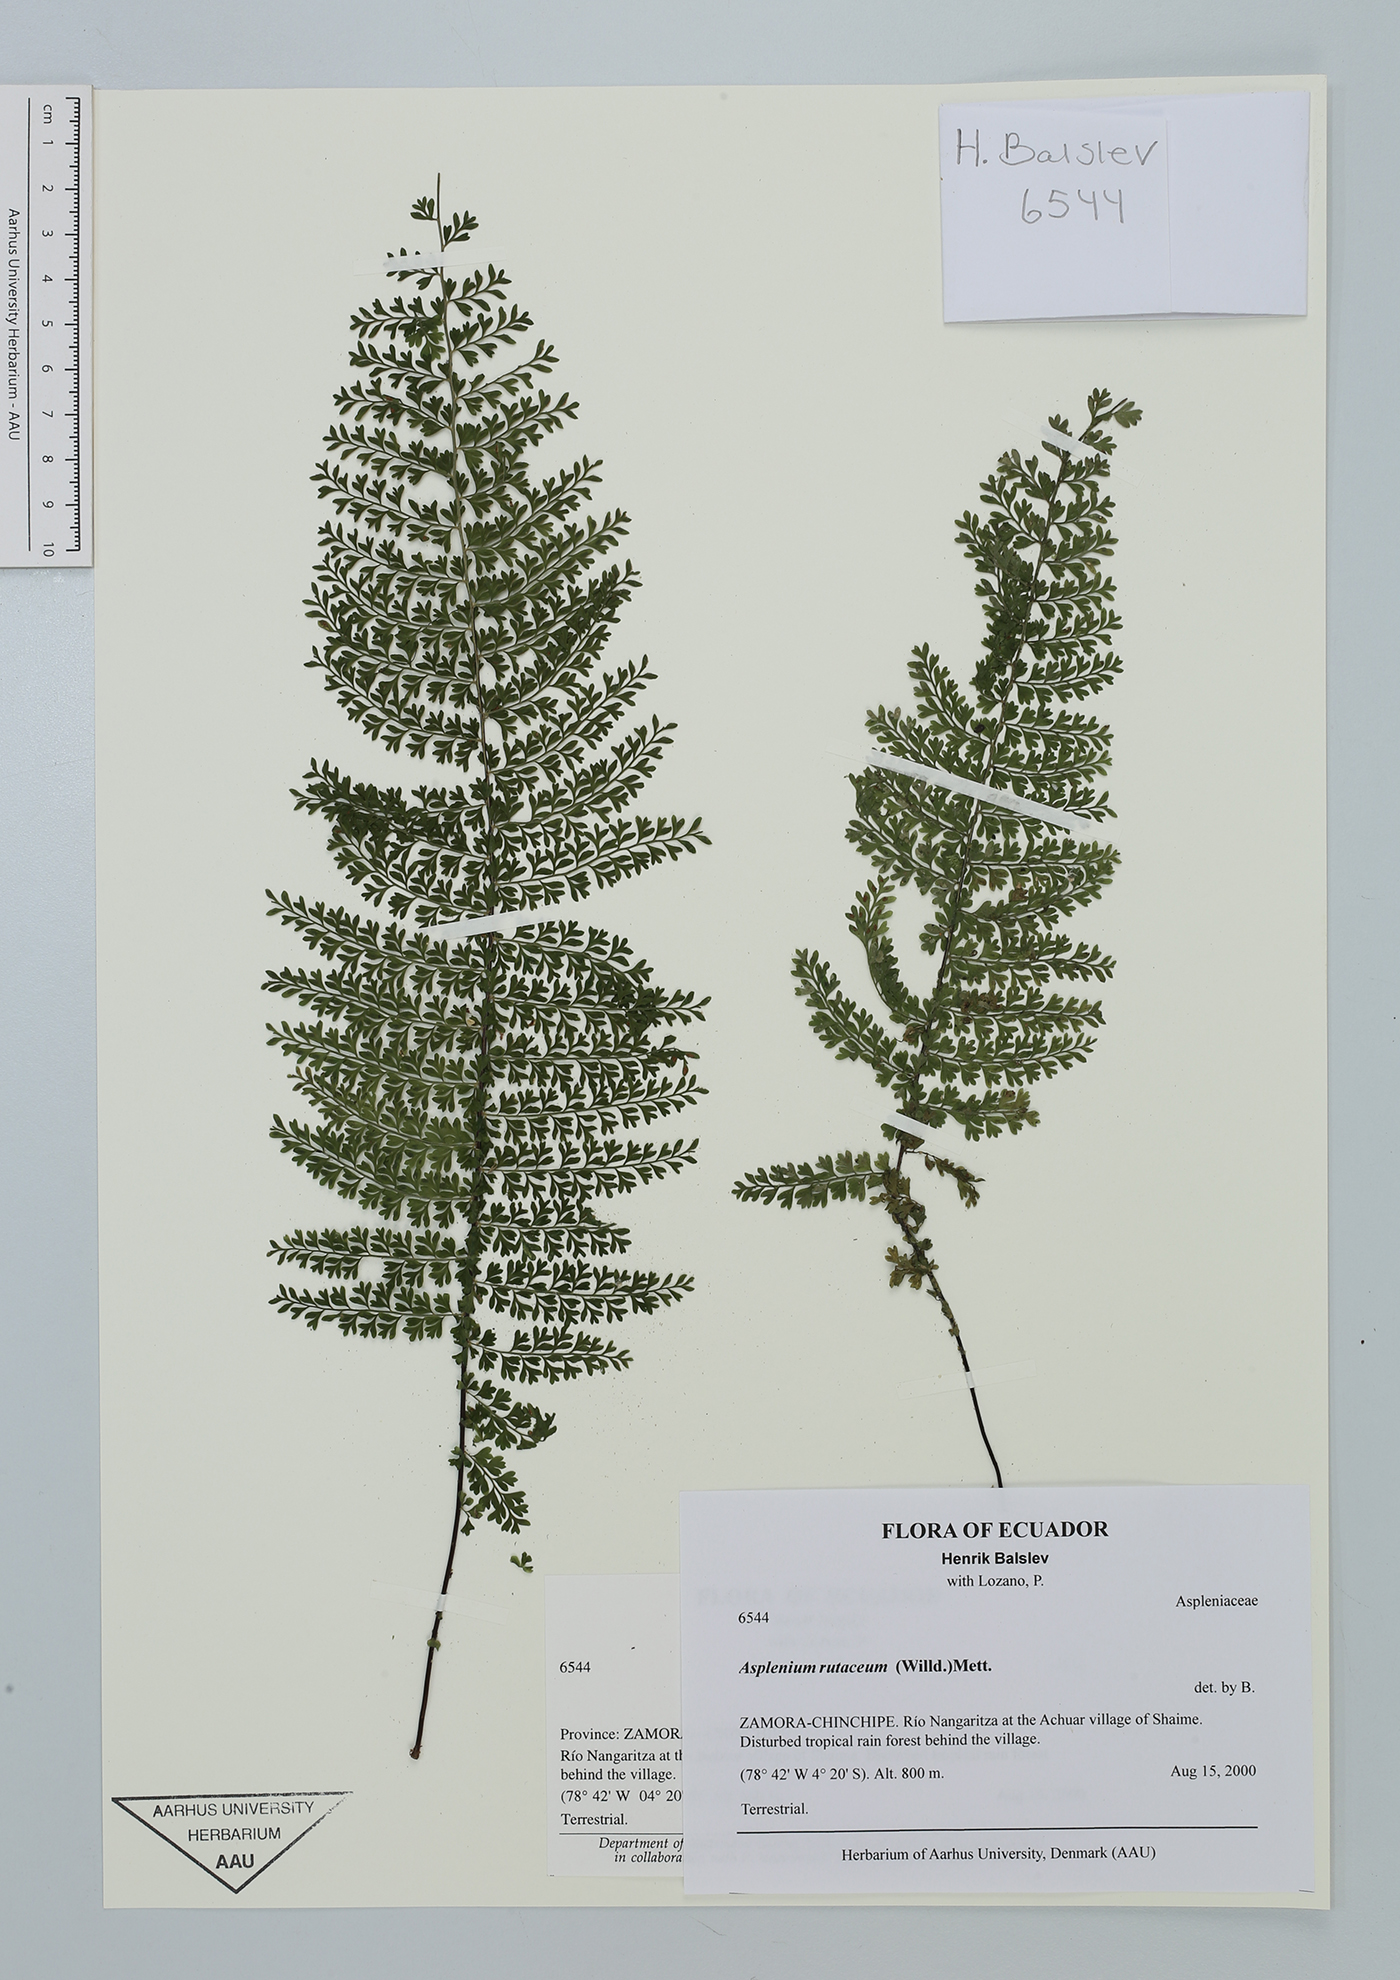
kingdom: Plantae
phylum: Tracheophyta
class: Polypodiopsida
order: Polypodiales
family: Aspleniaceae
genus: Asplenium
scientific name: Asplenium rutaceum
